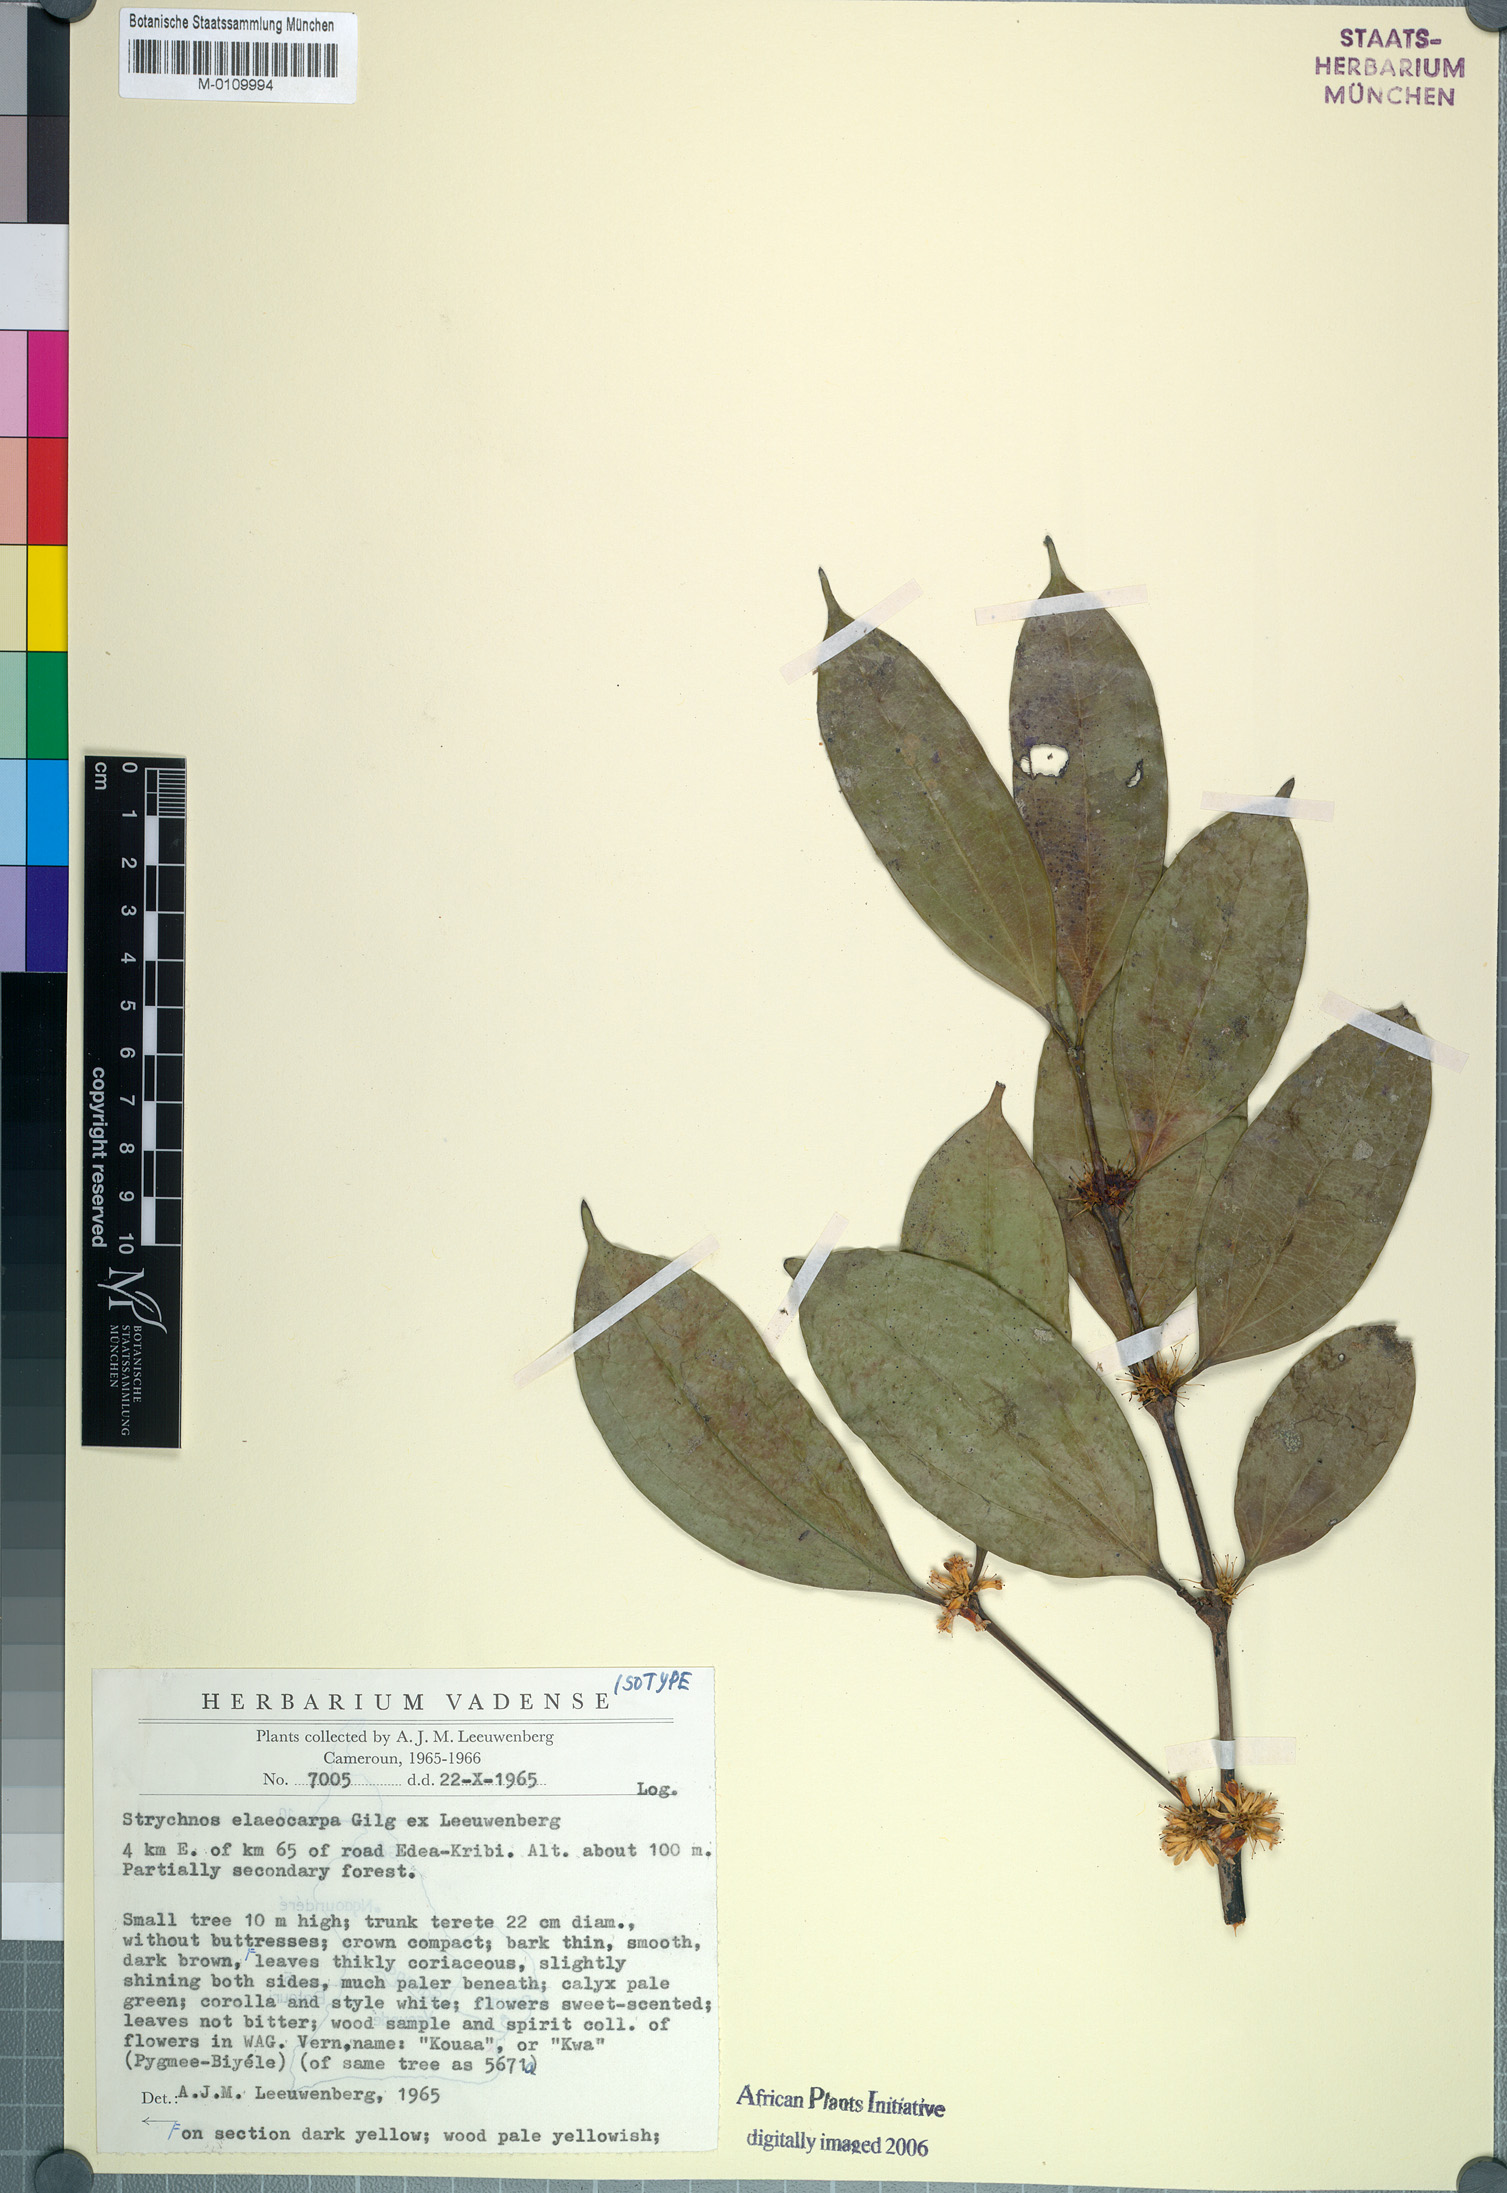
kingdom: Plantae
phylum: Tracheophyta
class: Magnoliopsida
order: Gentianales
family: Loganiaceae
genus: Strychnos
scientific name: Strychnos elaeocarpa
